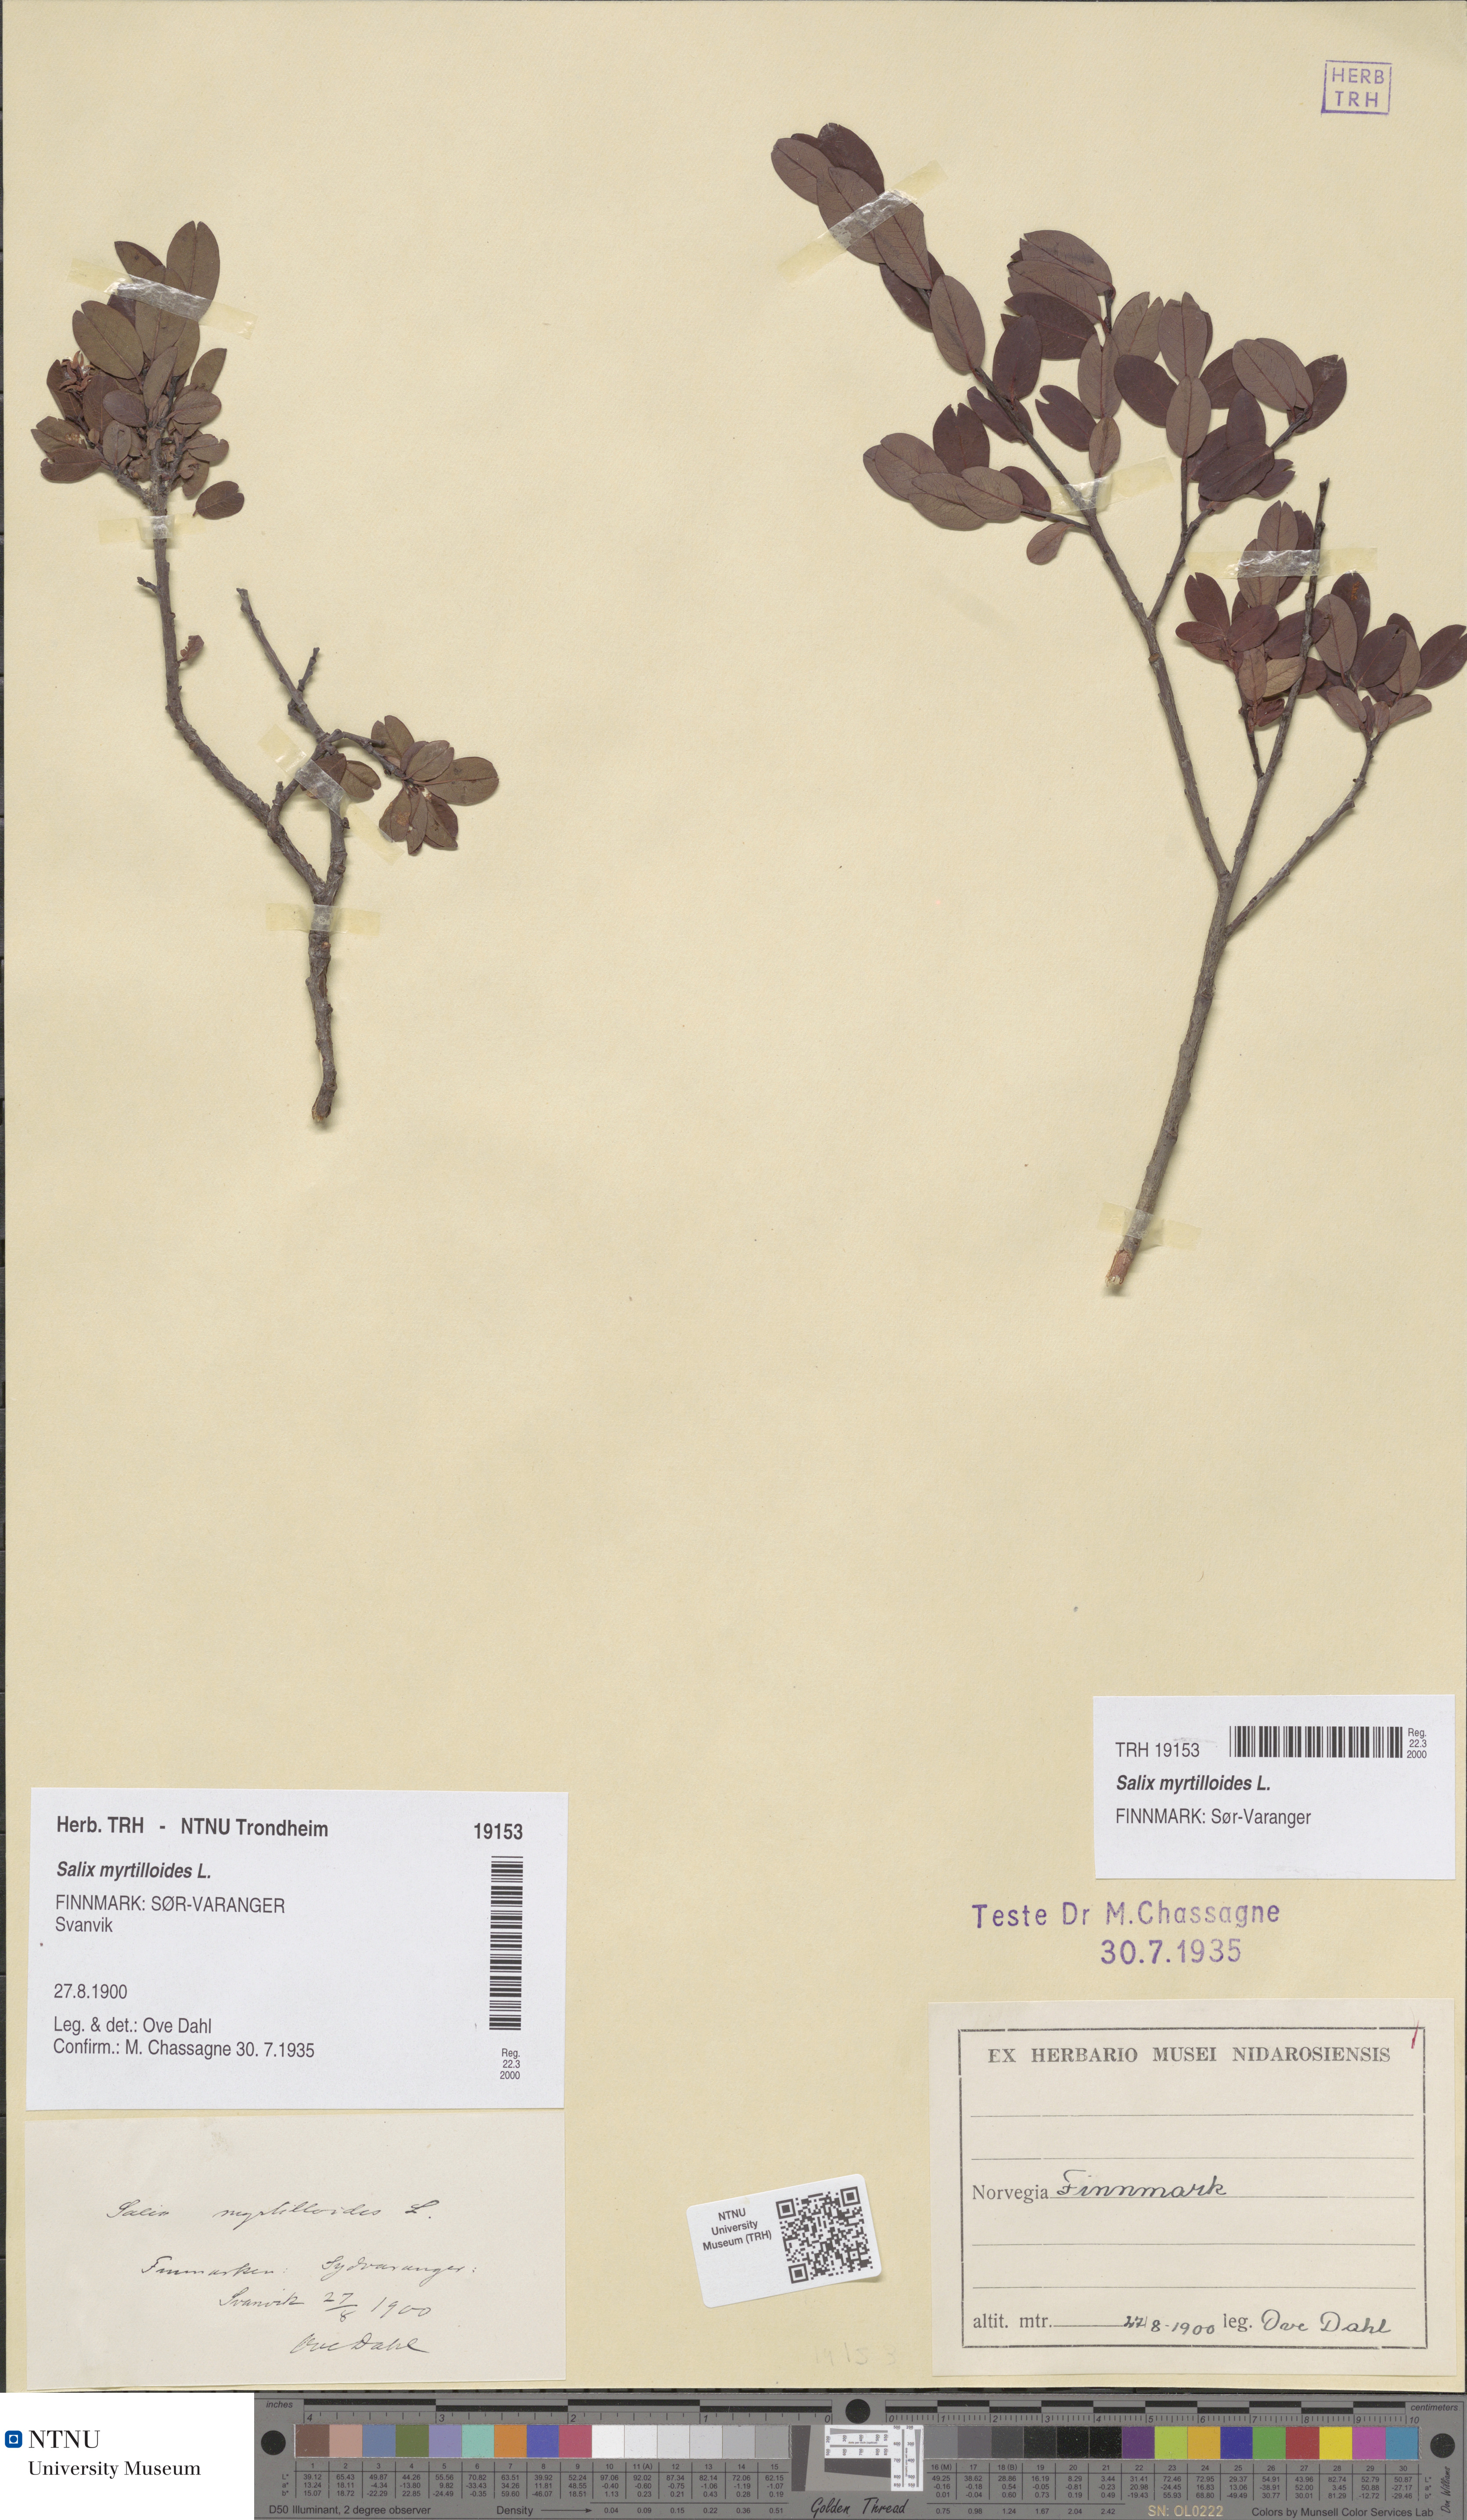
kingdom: Plantae
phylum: Tracheophyta
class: Magnoliopsida
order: Malpighiales
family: Salicaceae
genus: Salix
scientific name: Salix myrtilloides
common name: Myrtle-leaved willow
